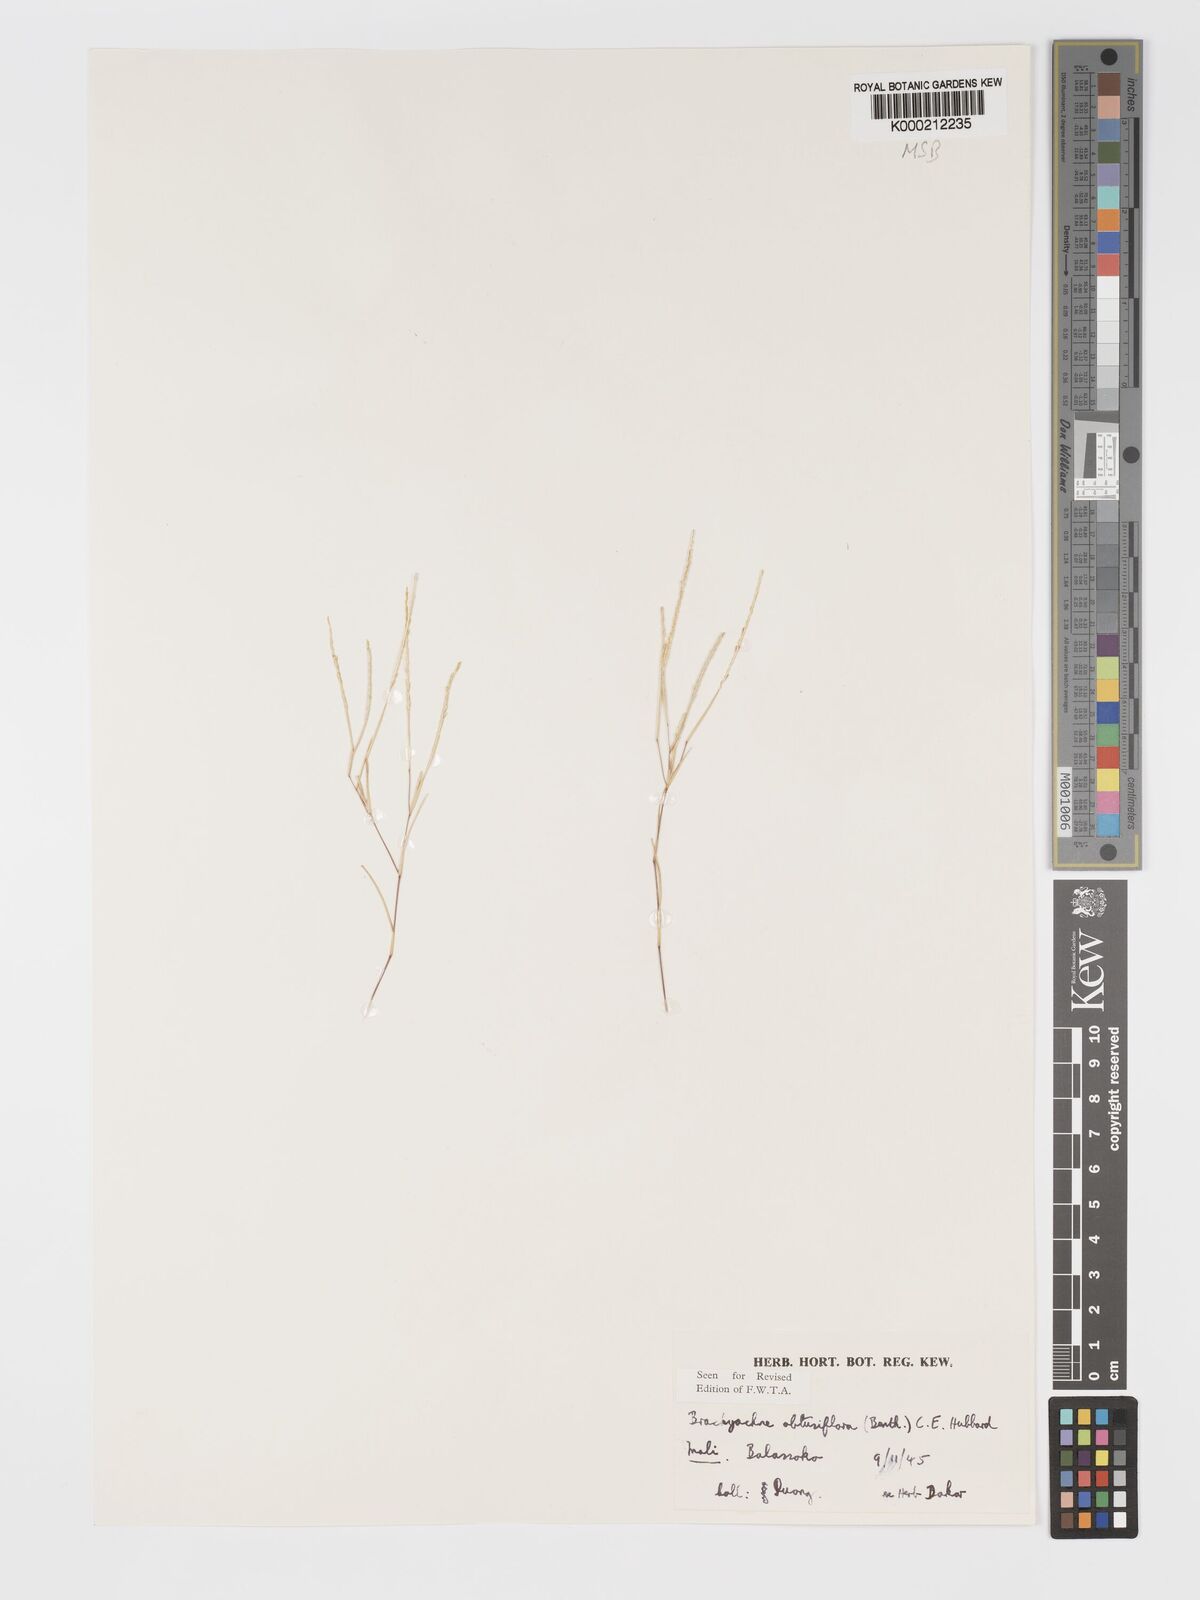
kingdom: Plantae
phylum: Tracheophyta
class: Liliopsida
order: Poales
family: Poaceae
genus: Micrachne
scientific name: Micrachne obtusiflora
